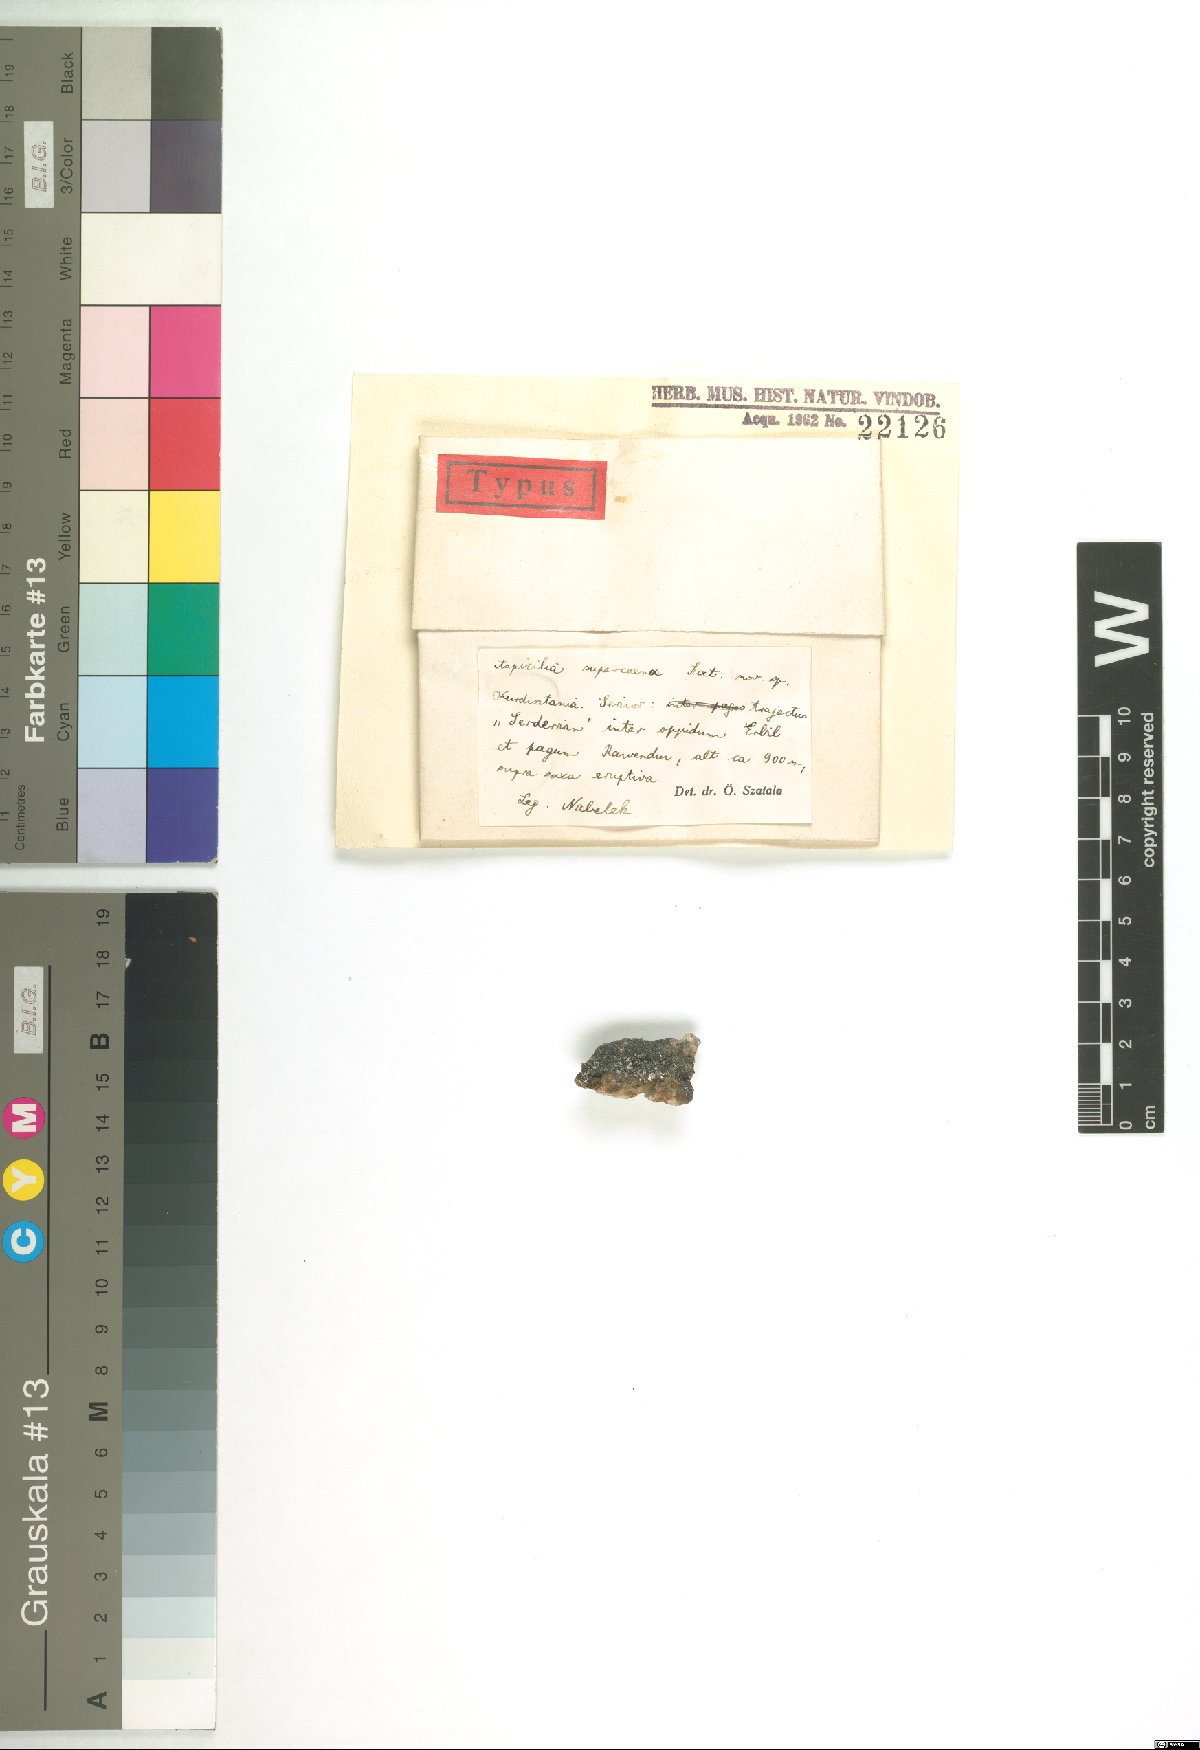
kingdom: Fungi
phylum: Ascomycota
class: Lecanoromycetes
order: Hymeneliales
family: Hymeneliaceae
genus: Aspicilia
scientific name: Aspicilia
